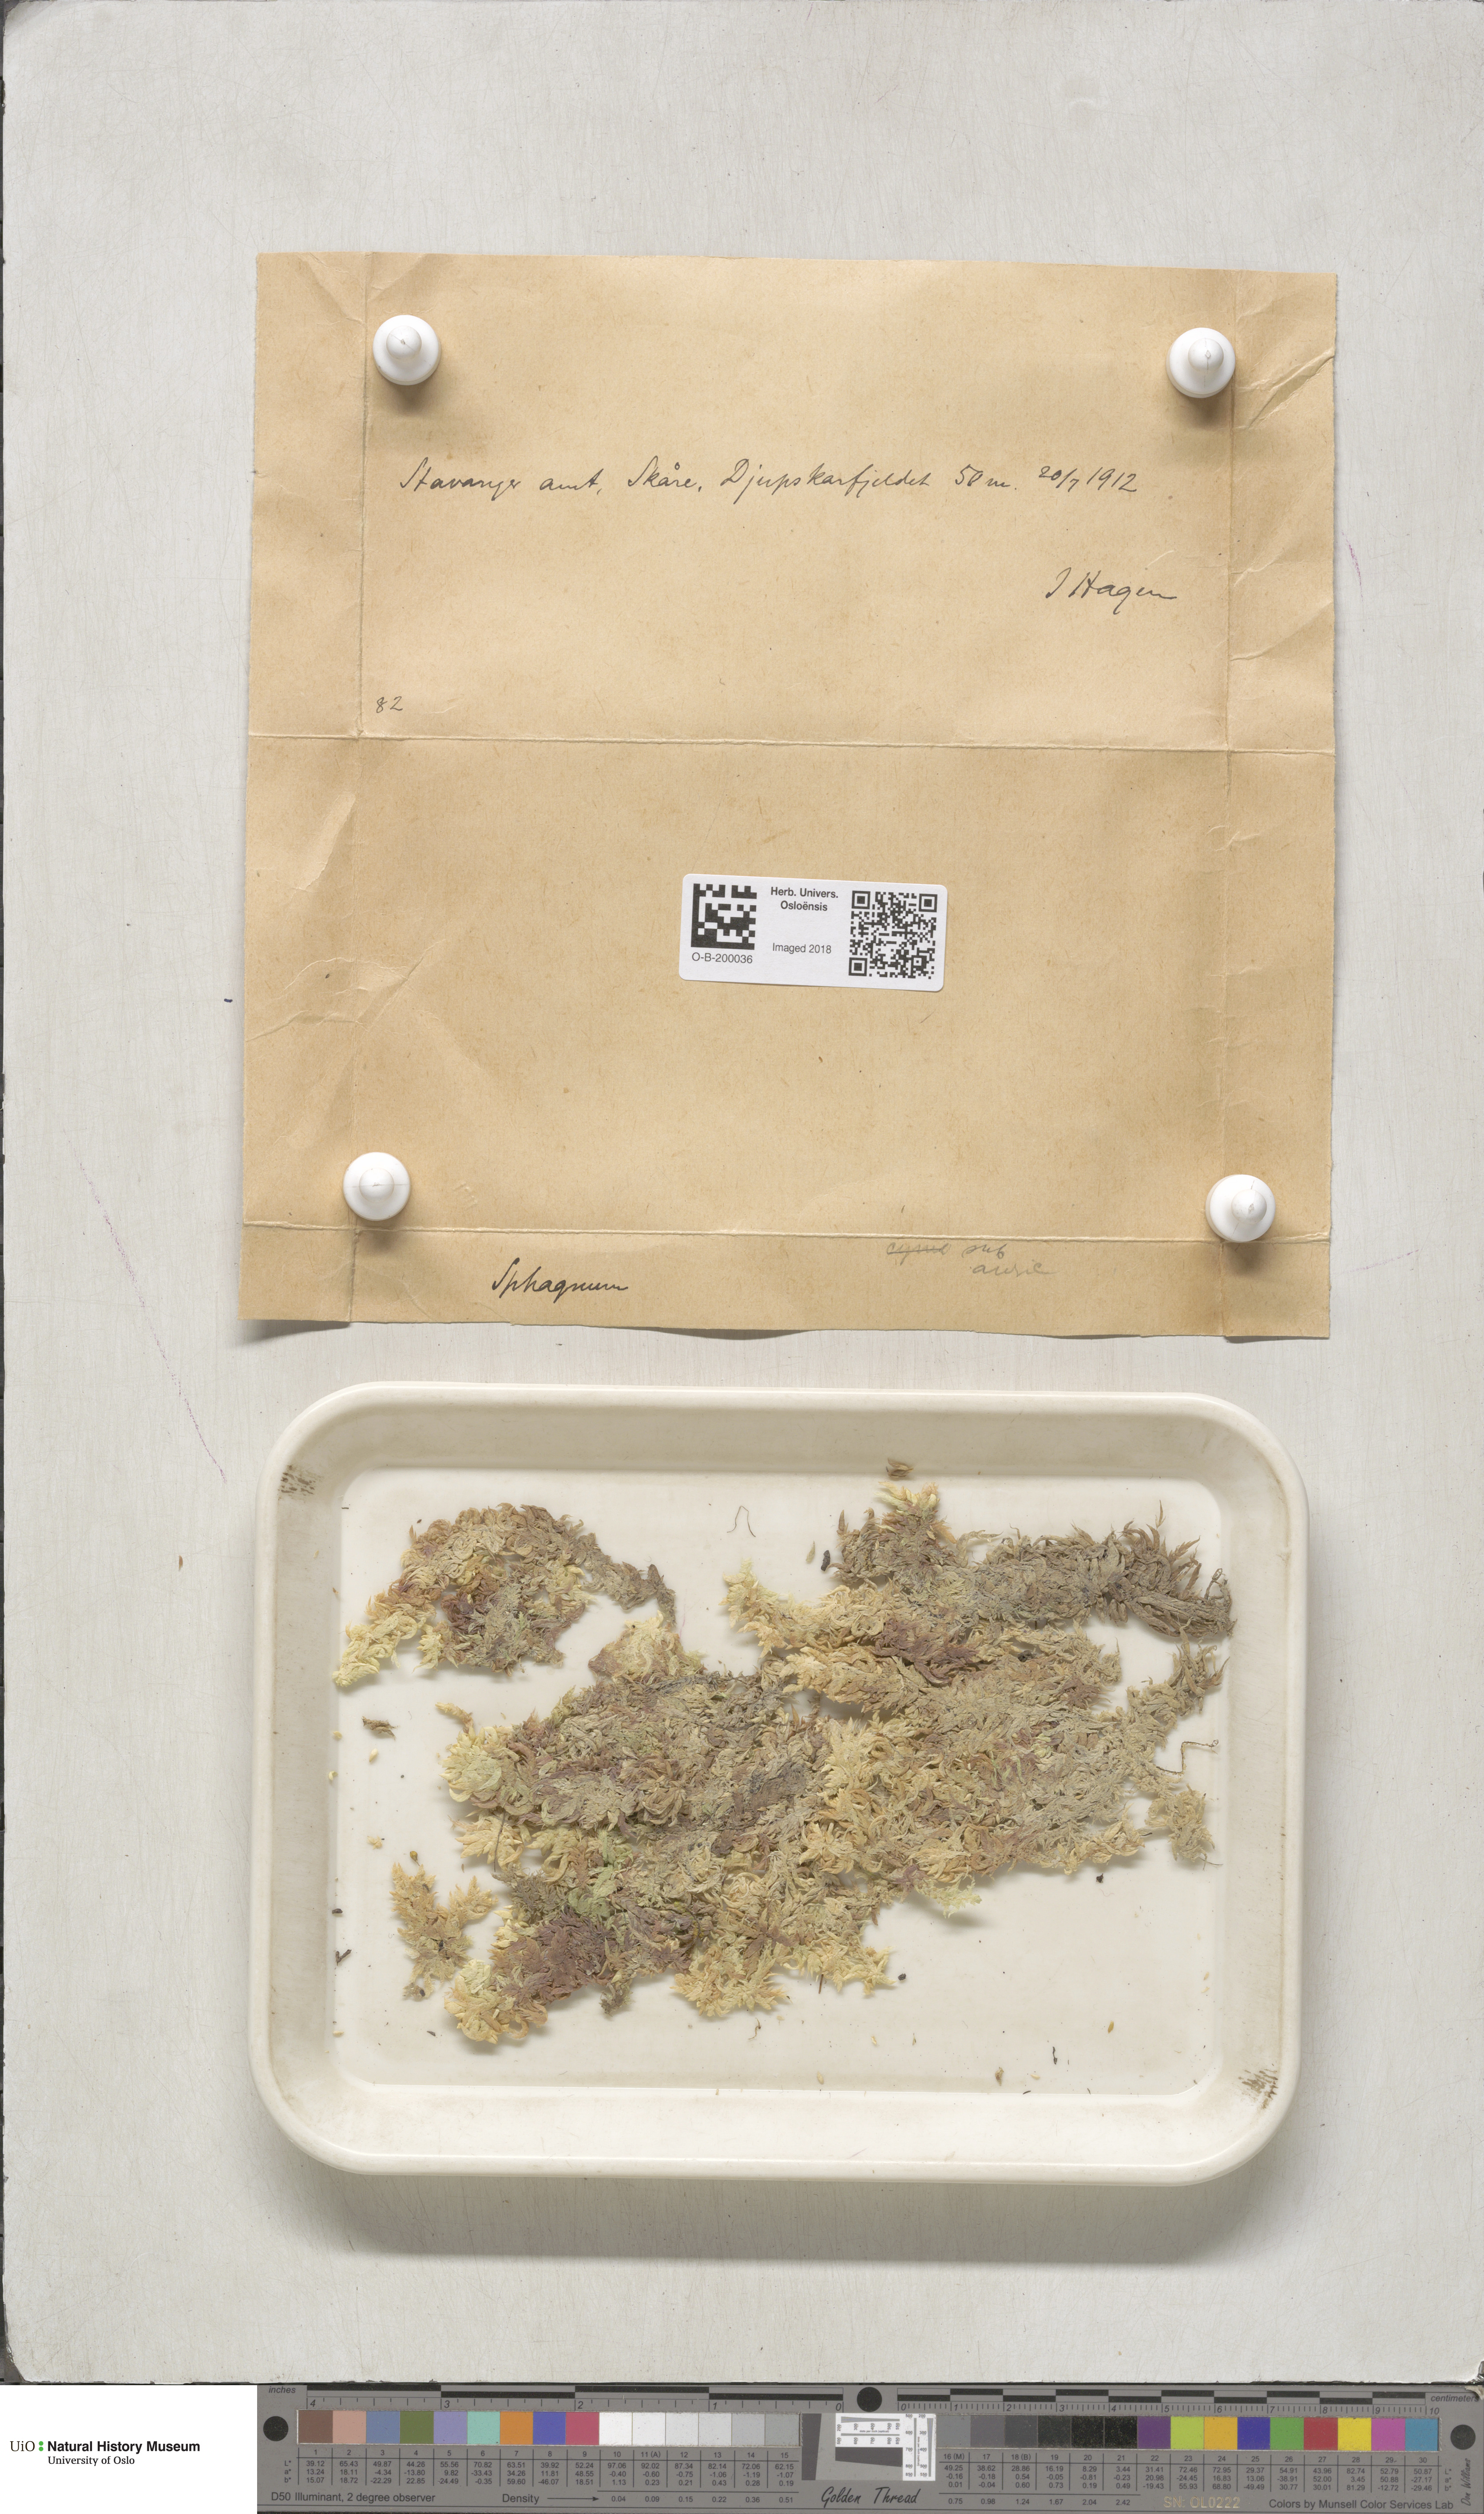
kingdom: Plantae
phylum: Bryophyta
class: Sphagnopsida
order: Sphagnales
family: Sphagnaceae
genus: Sphagnum
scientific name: Sphagnum denticulatum
